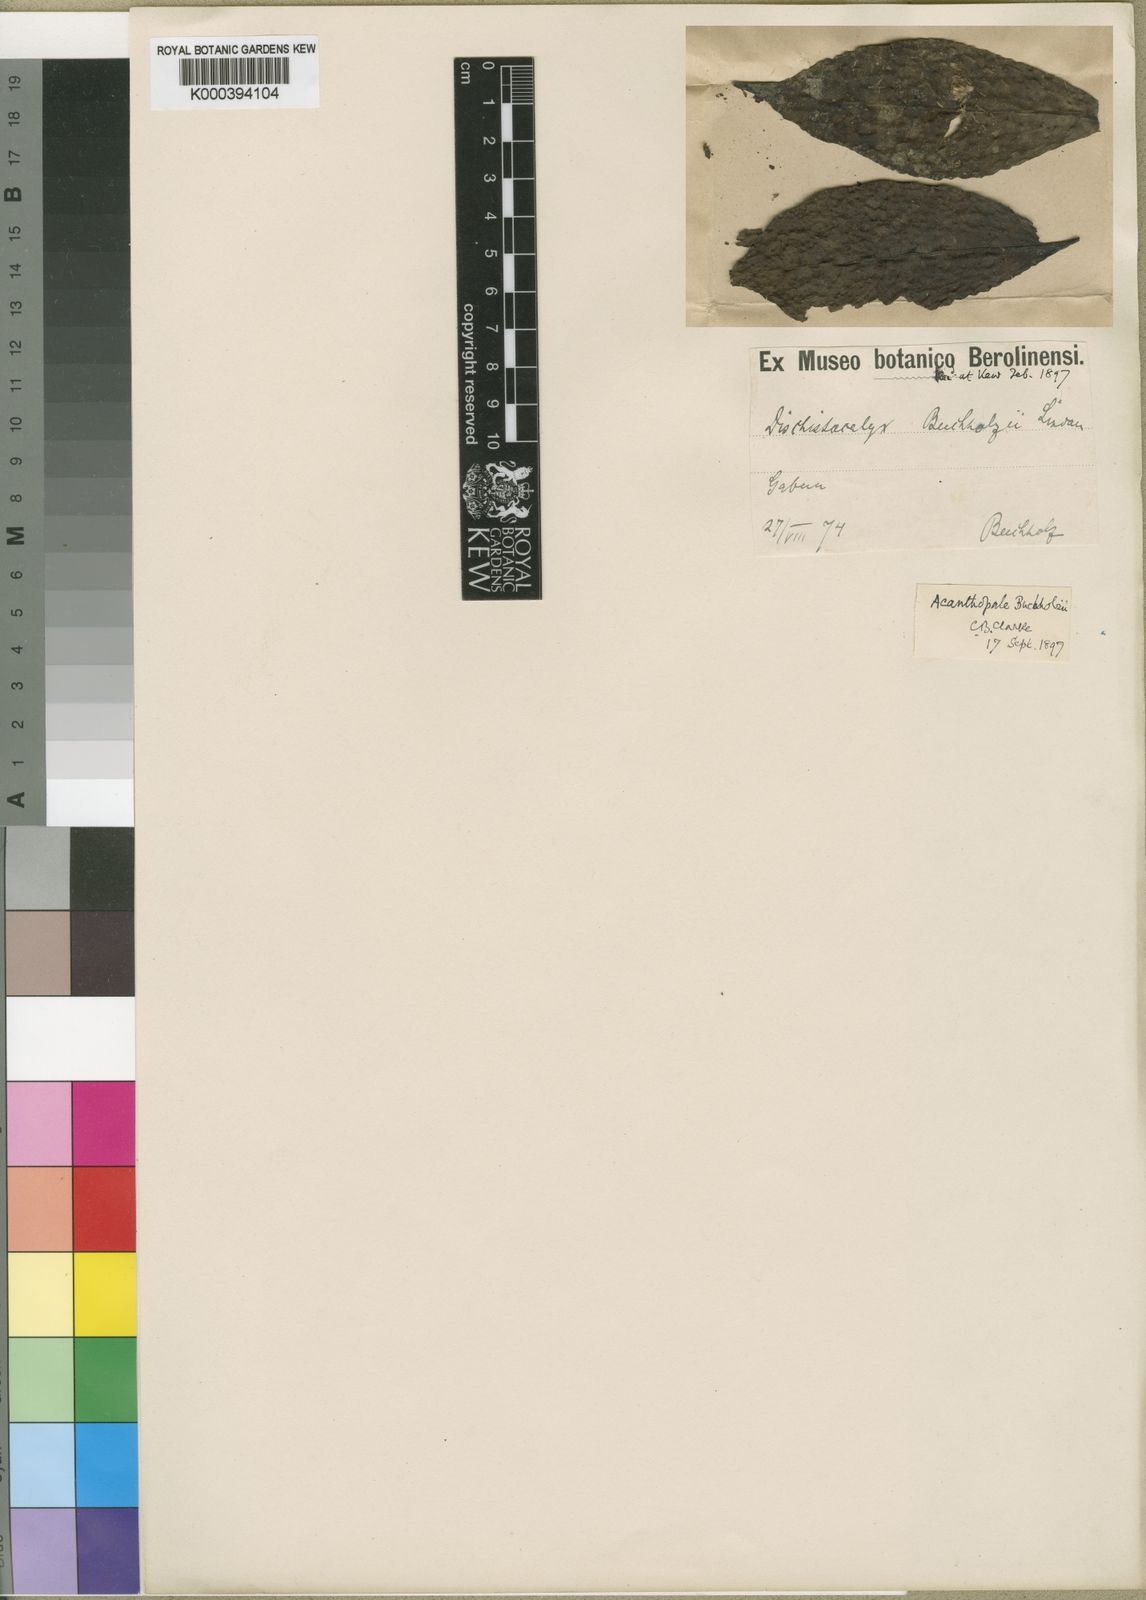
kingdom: Plantae
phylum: Tracheophyta
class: Magnoliopsida
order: Lamiales
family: Acanthaceae
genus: Dischistocalyx
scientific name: Dischistocalyx grandifolius
